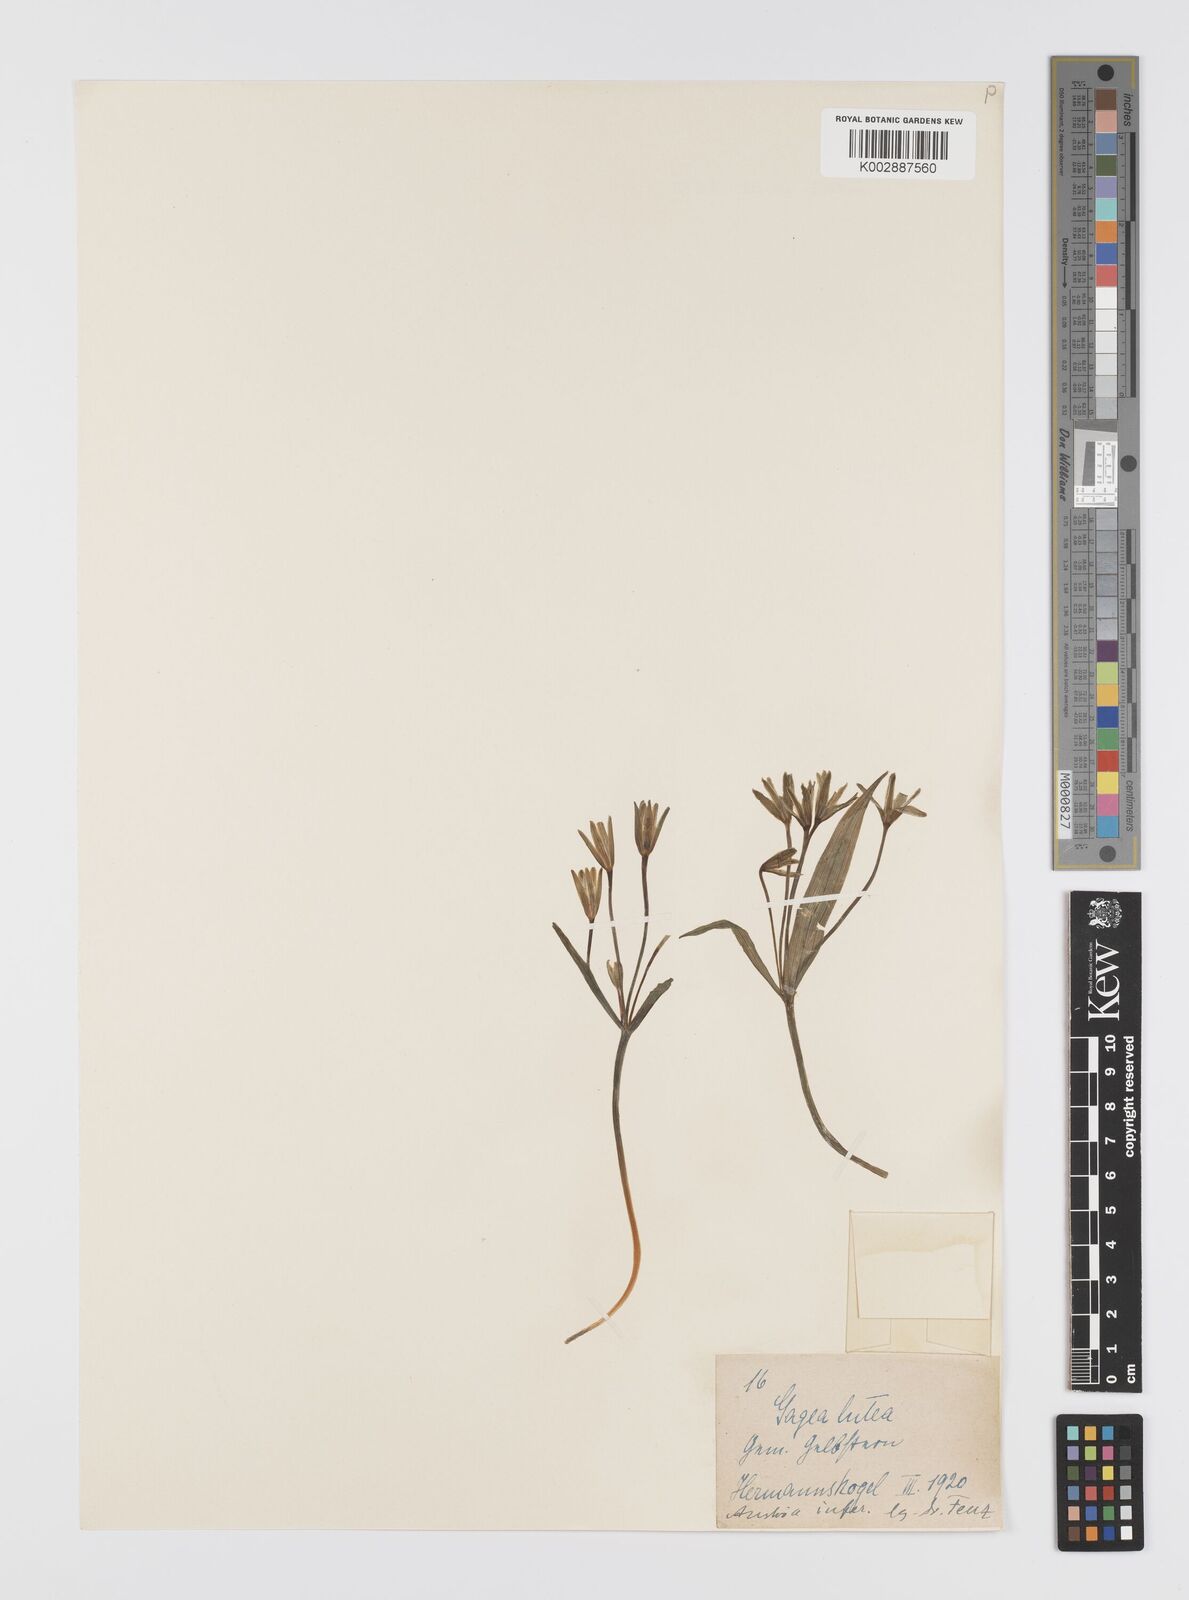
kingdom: Plantae
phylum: Tracheophyta
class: Liliopsida
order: Liliales
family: Liliaceae
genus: Gagea
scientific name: Gagea lutea
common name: Yellow star-of-bethlehem
